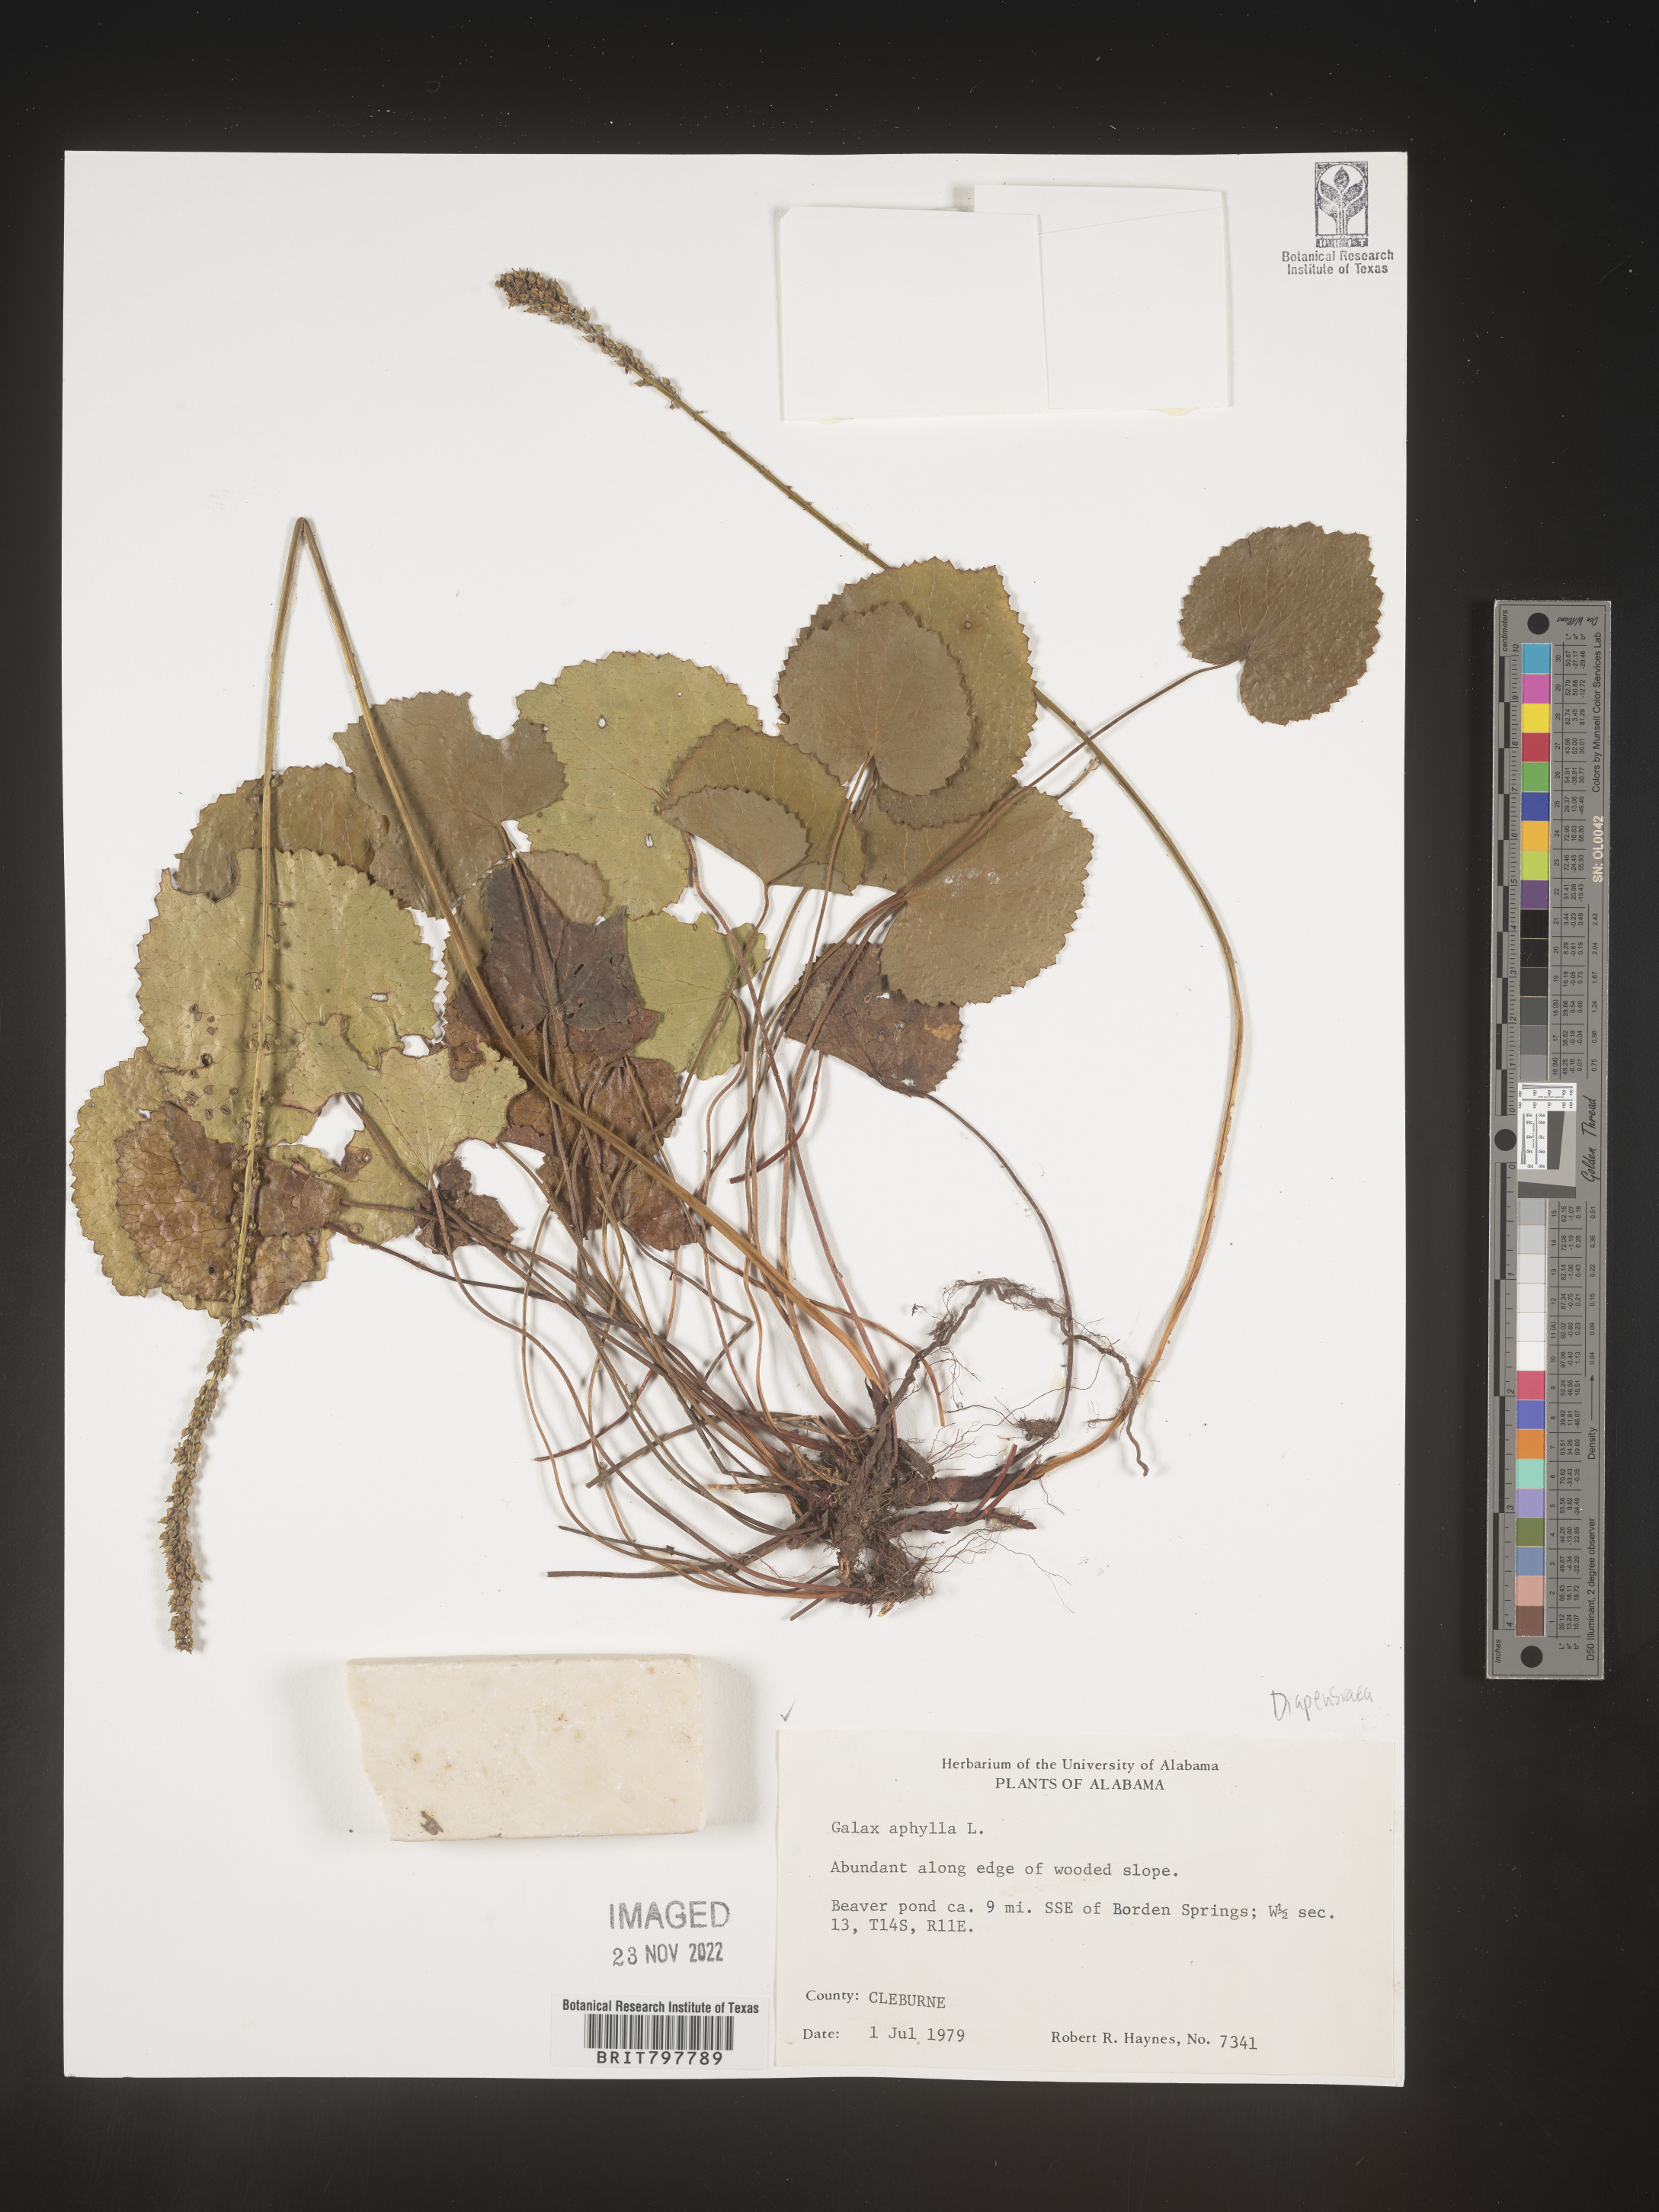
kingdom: Plantae
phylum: Tracheophyta
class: Magnoliopsida
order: Ericales
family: Diapensiaceae
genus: Galax
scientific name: Galax
